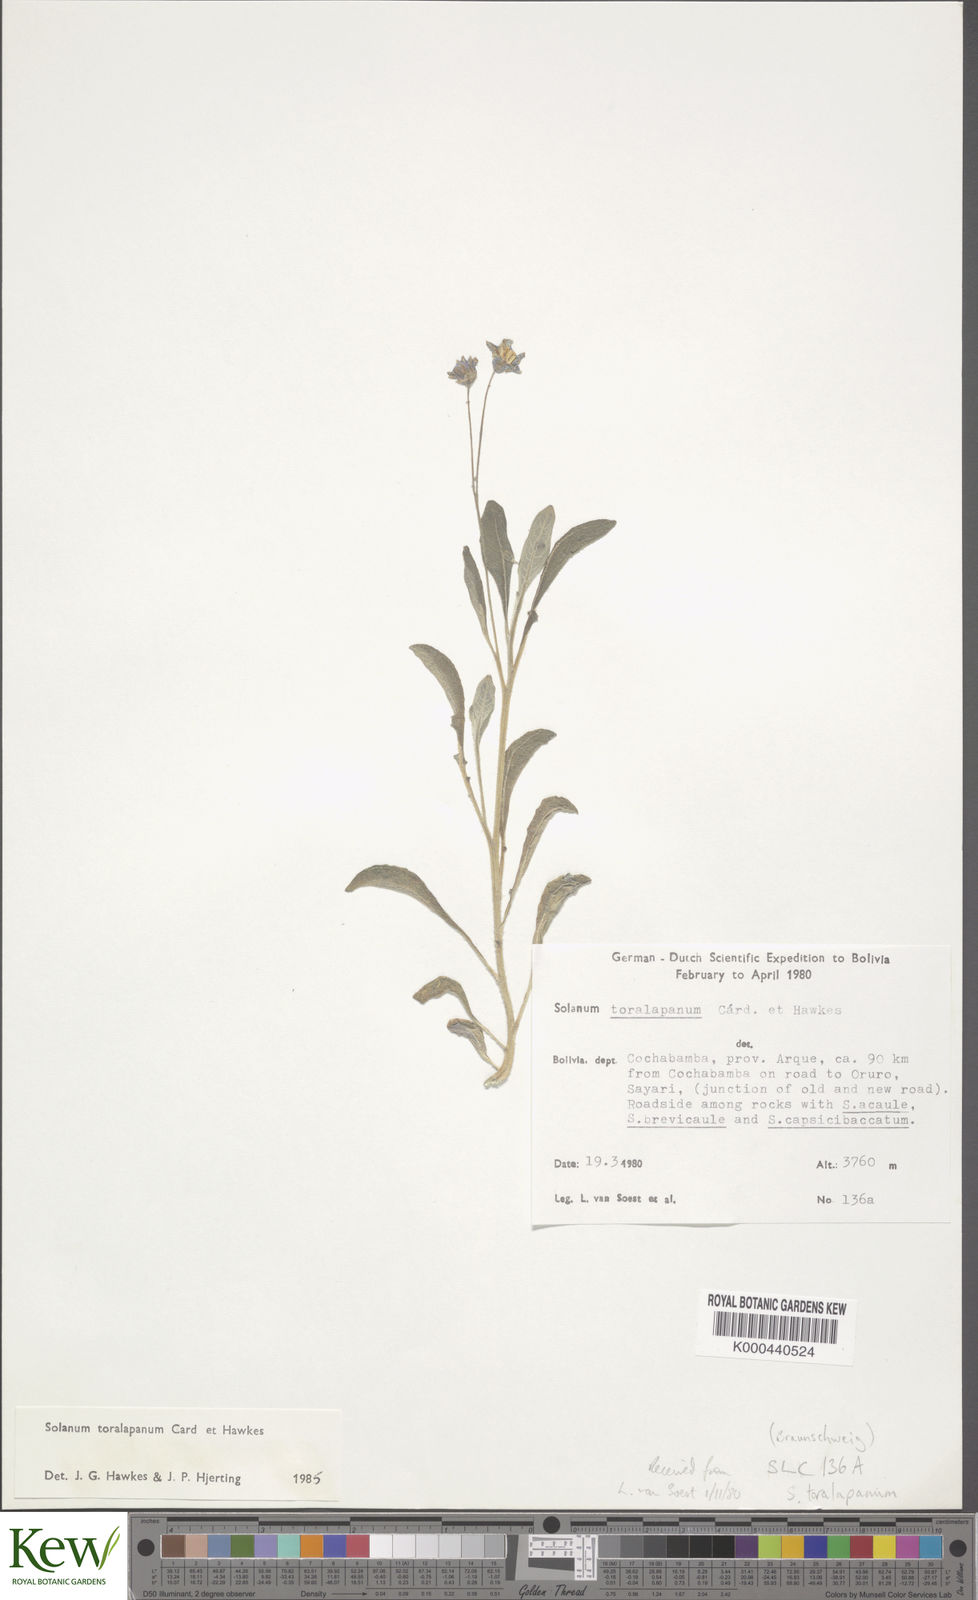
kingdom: Plantae
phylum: Tracheophyta
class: Magnoliopsida
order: Solanales
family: Solanaceae
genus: Solanum
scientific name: Solanum boliviense
